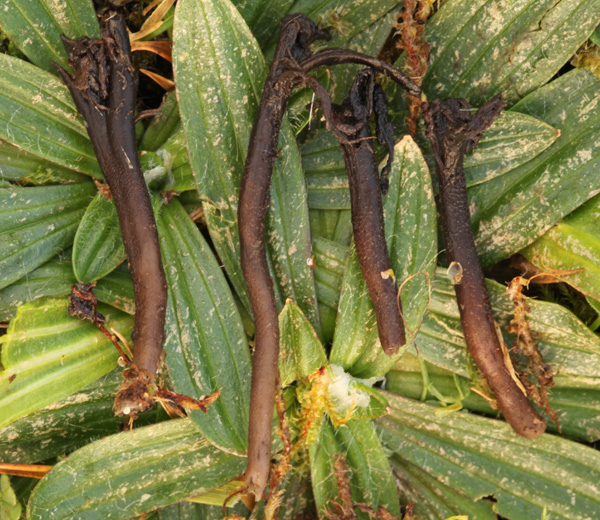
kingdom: Fungi
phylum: Ascomycota
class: Geoglossomycetes
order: Geoglossales
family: Geoglossaceae
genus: Hemileucoglossum
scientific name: Hemileucoglossum elongatum
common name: småsporet jordtunge
